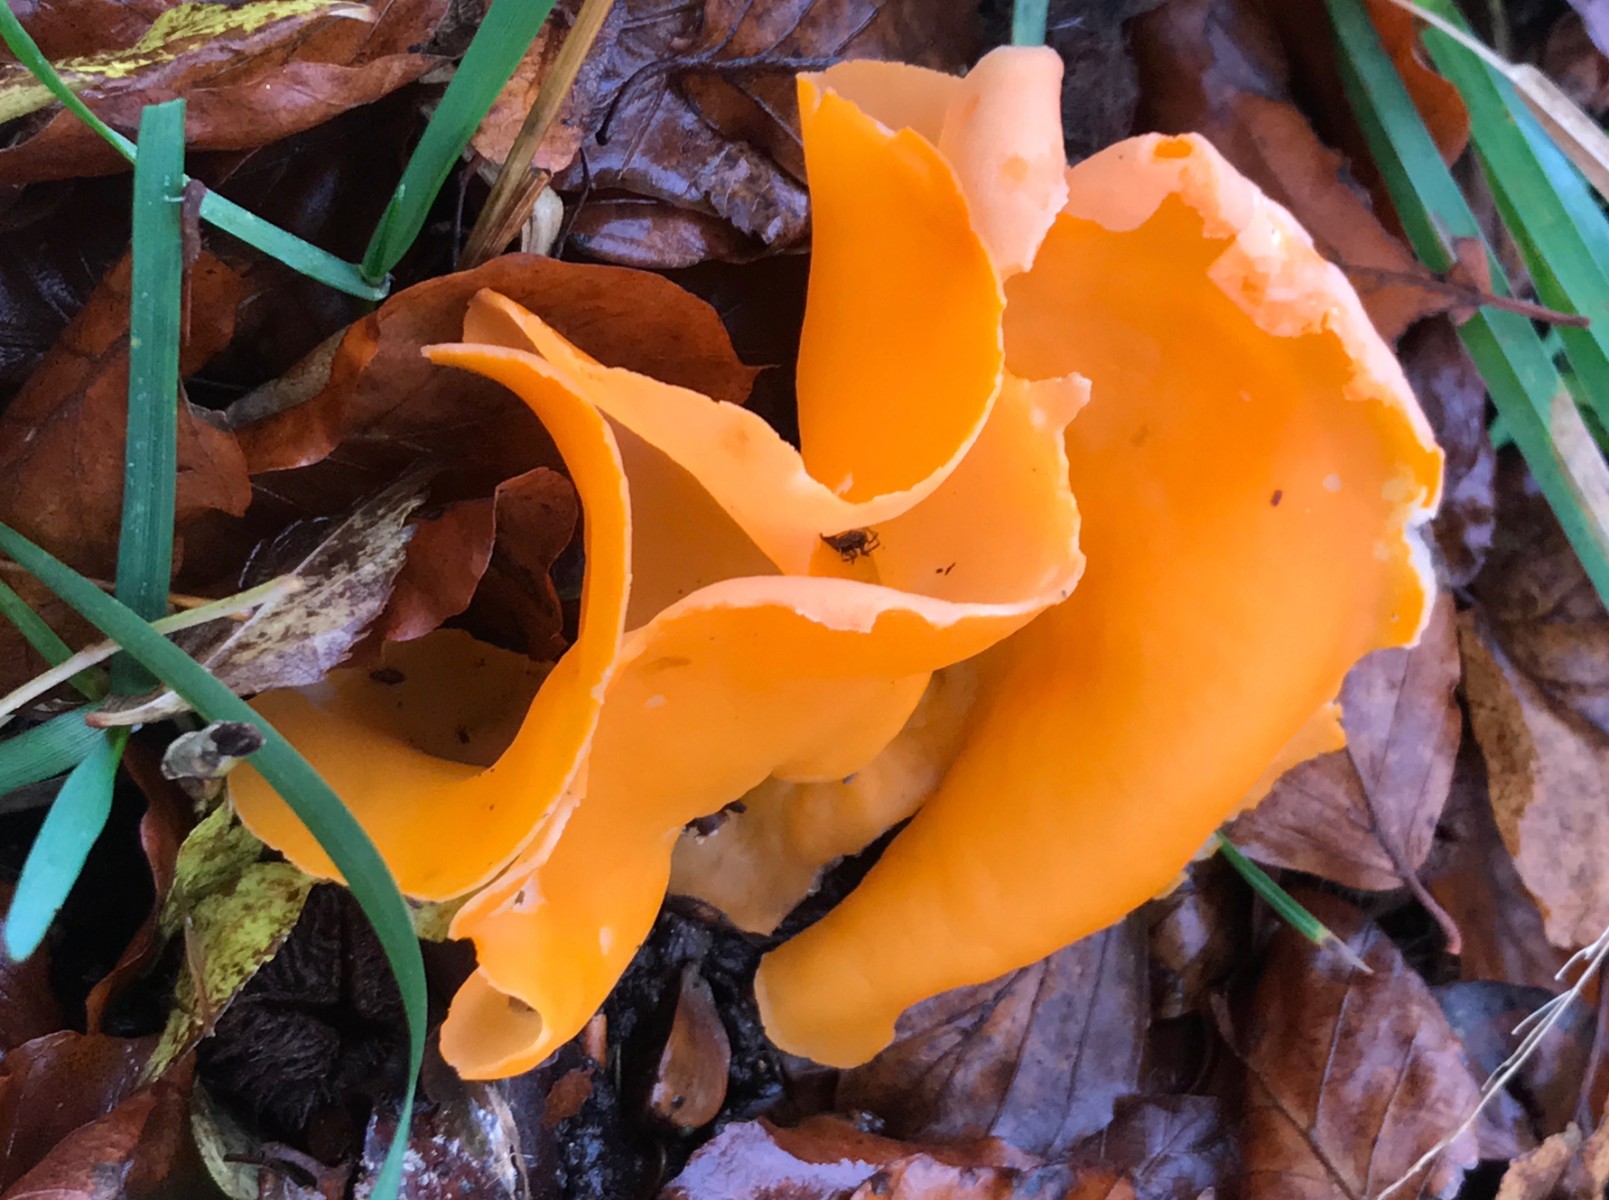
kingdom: Fungi
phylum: Ascomycota
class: Pezizomycetes
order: Pezizales
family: Pyronemataceae
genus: Aleuria
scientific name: Aleuria aurantia
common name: almindelig orangebæger
